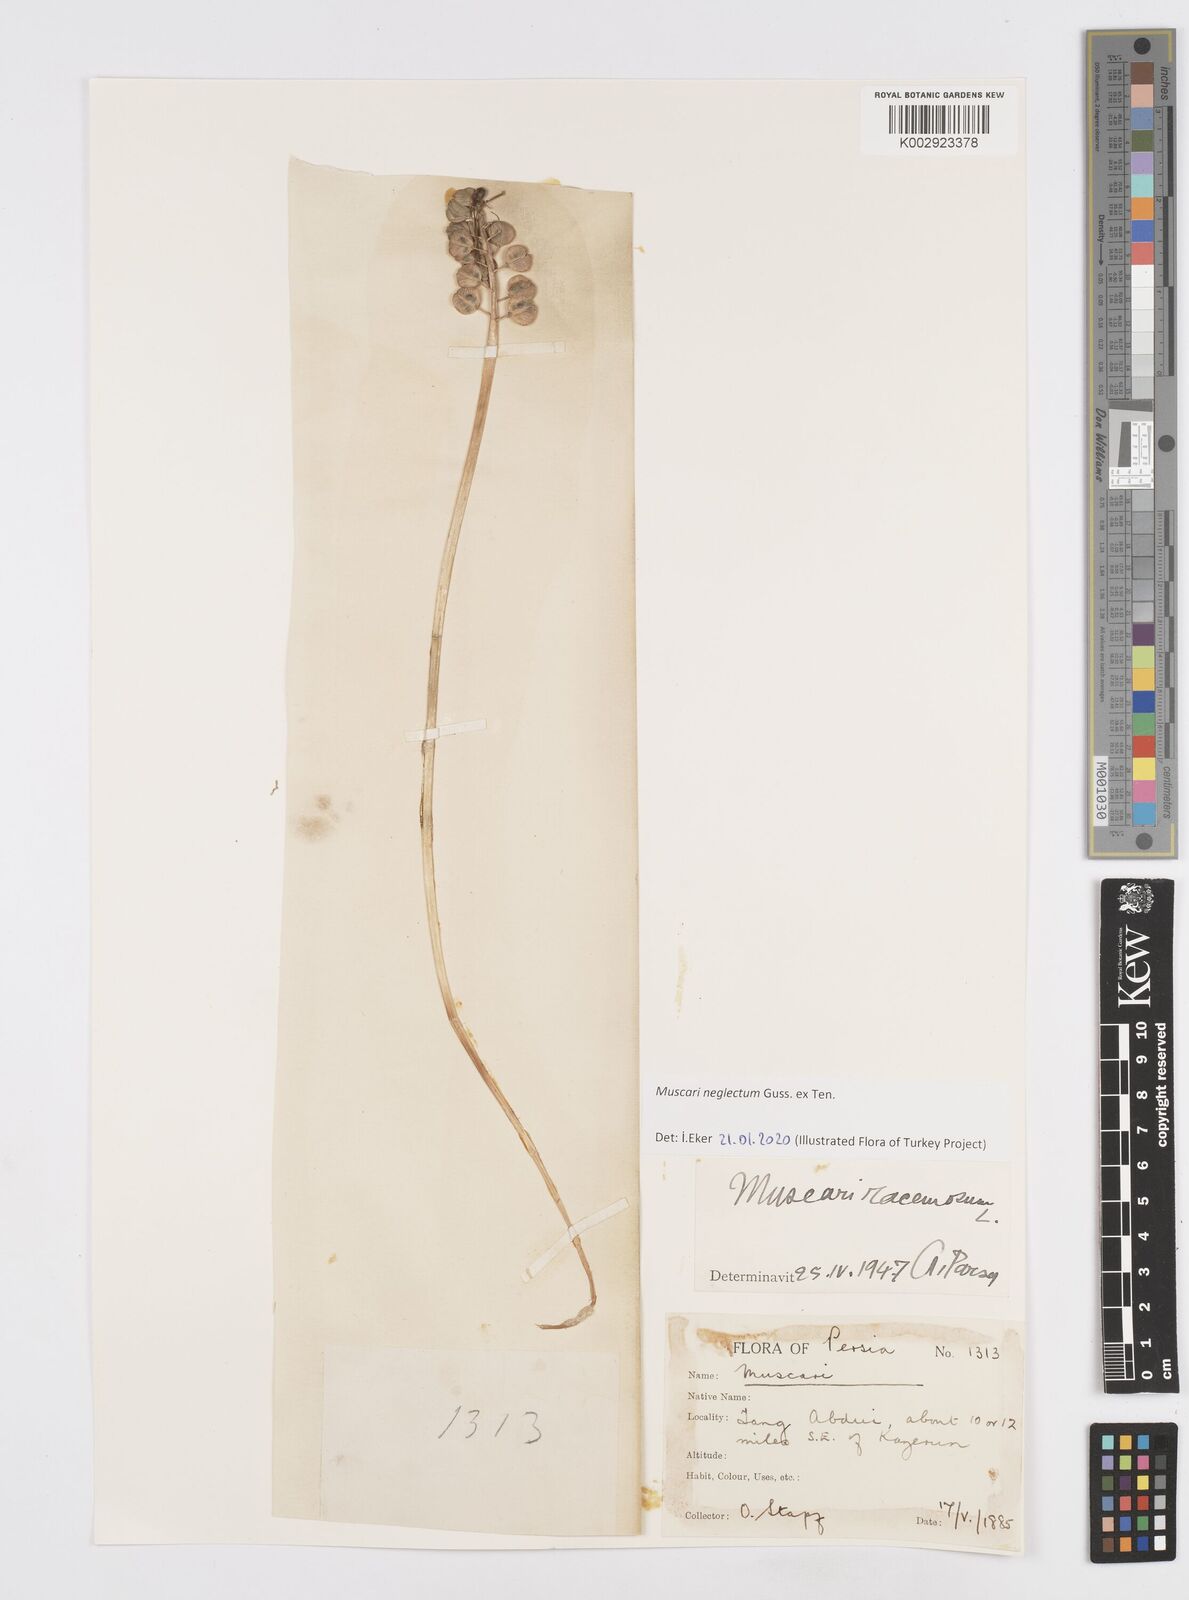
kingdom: Plantae
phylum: Tracheophyta
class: Liliopsida
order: Asparagales
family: Asparagaceae
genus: Muscari
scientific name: Muscari neglectum
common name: Grape-hyacinth
